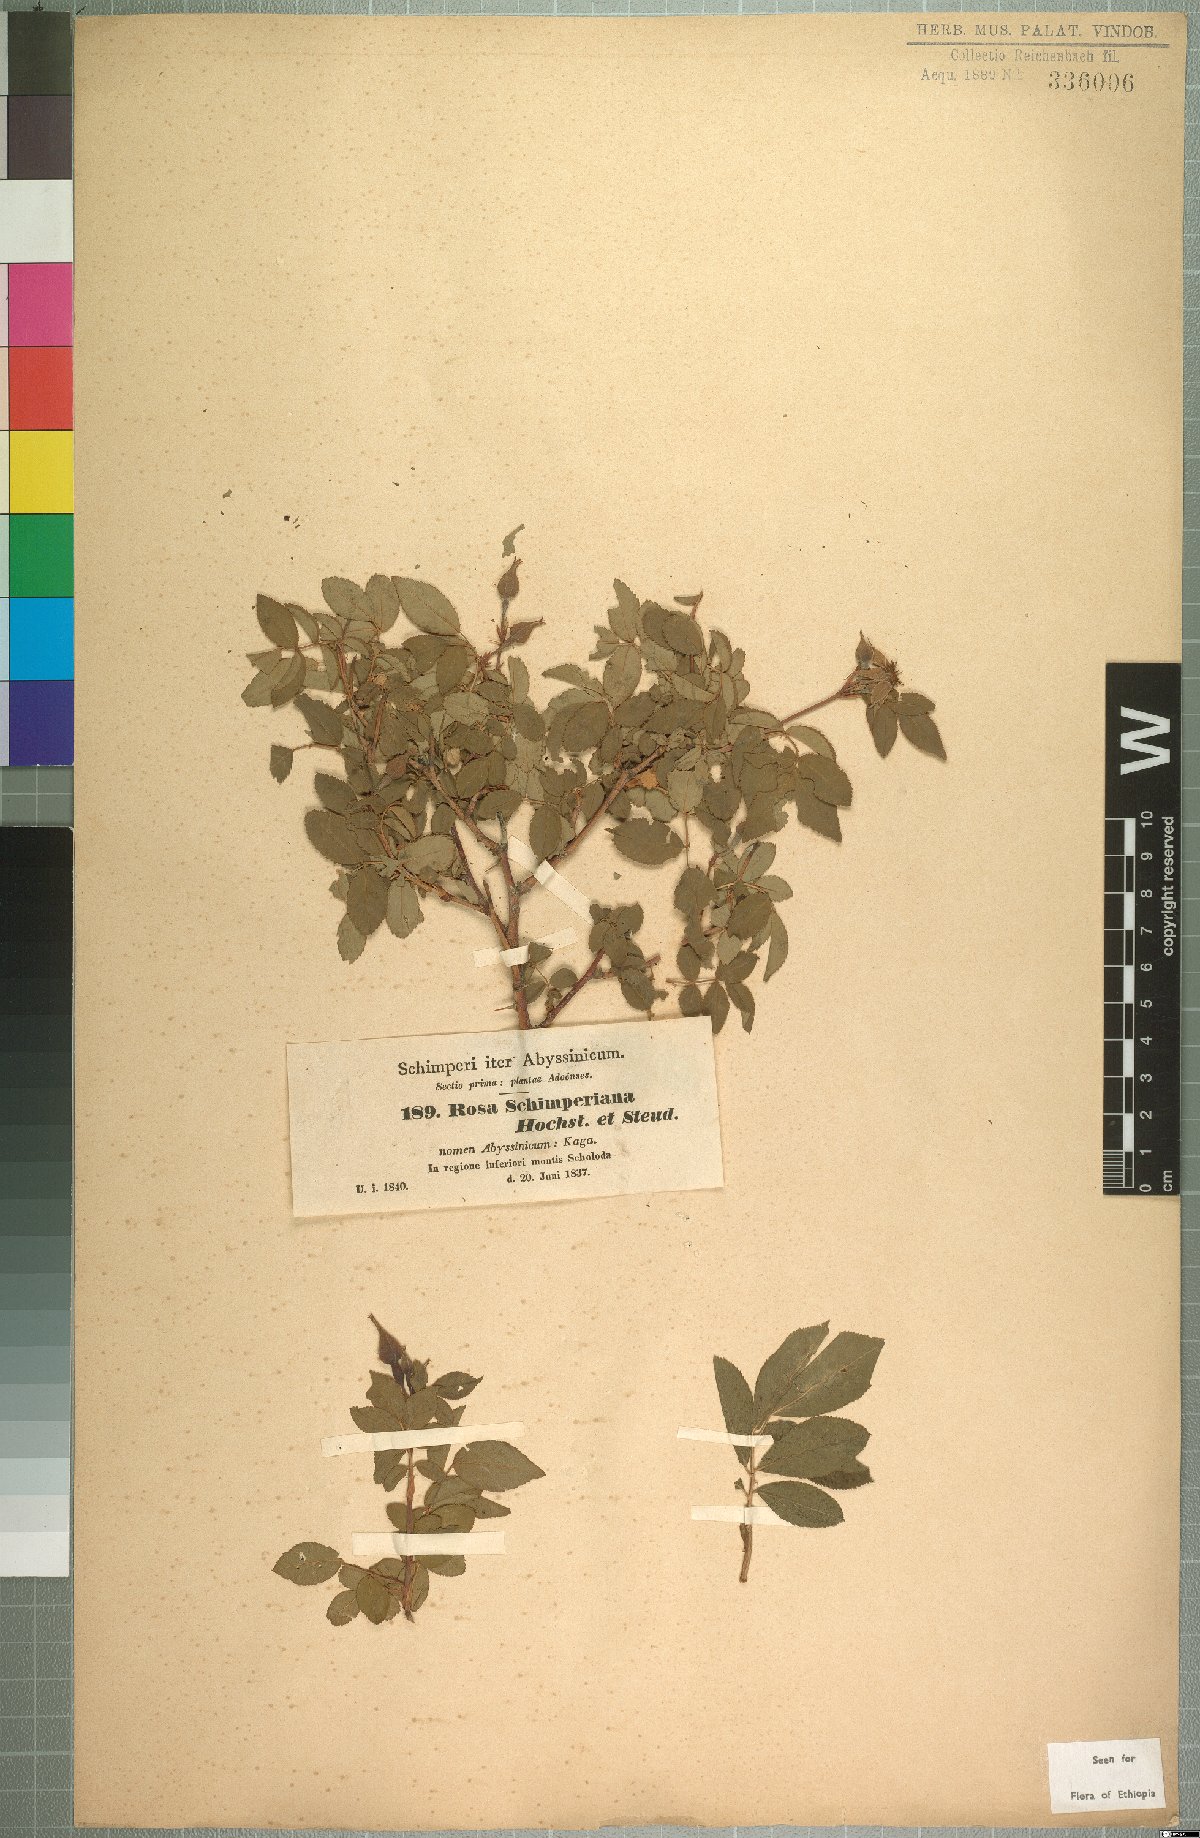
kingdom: Plantae
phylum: Tracheophyta
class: Magnoliopsida
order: Rosales
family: Rosaceae
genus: Rosa
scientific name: Rosa abyssinica
